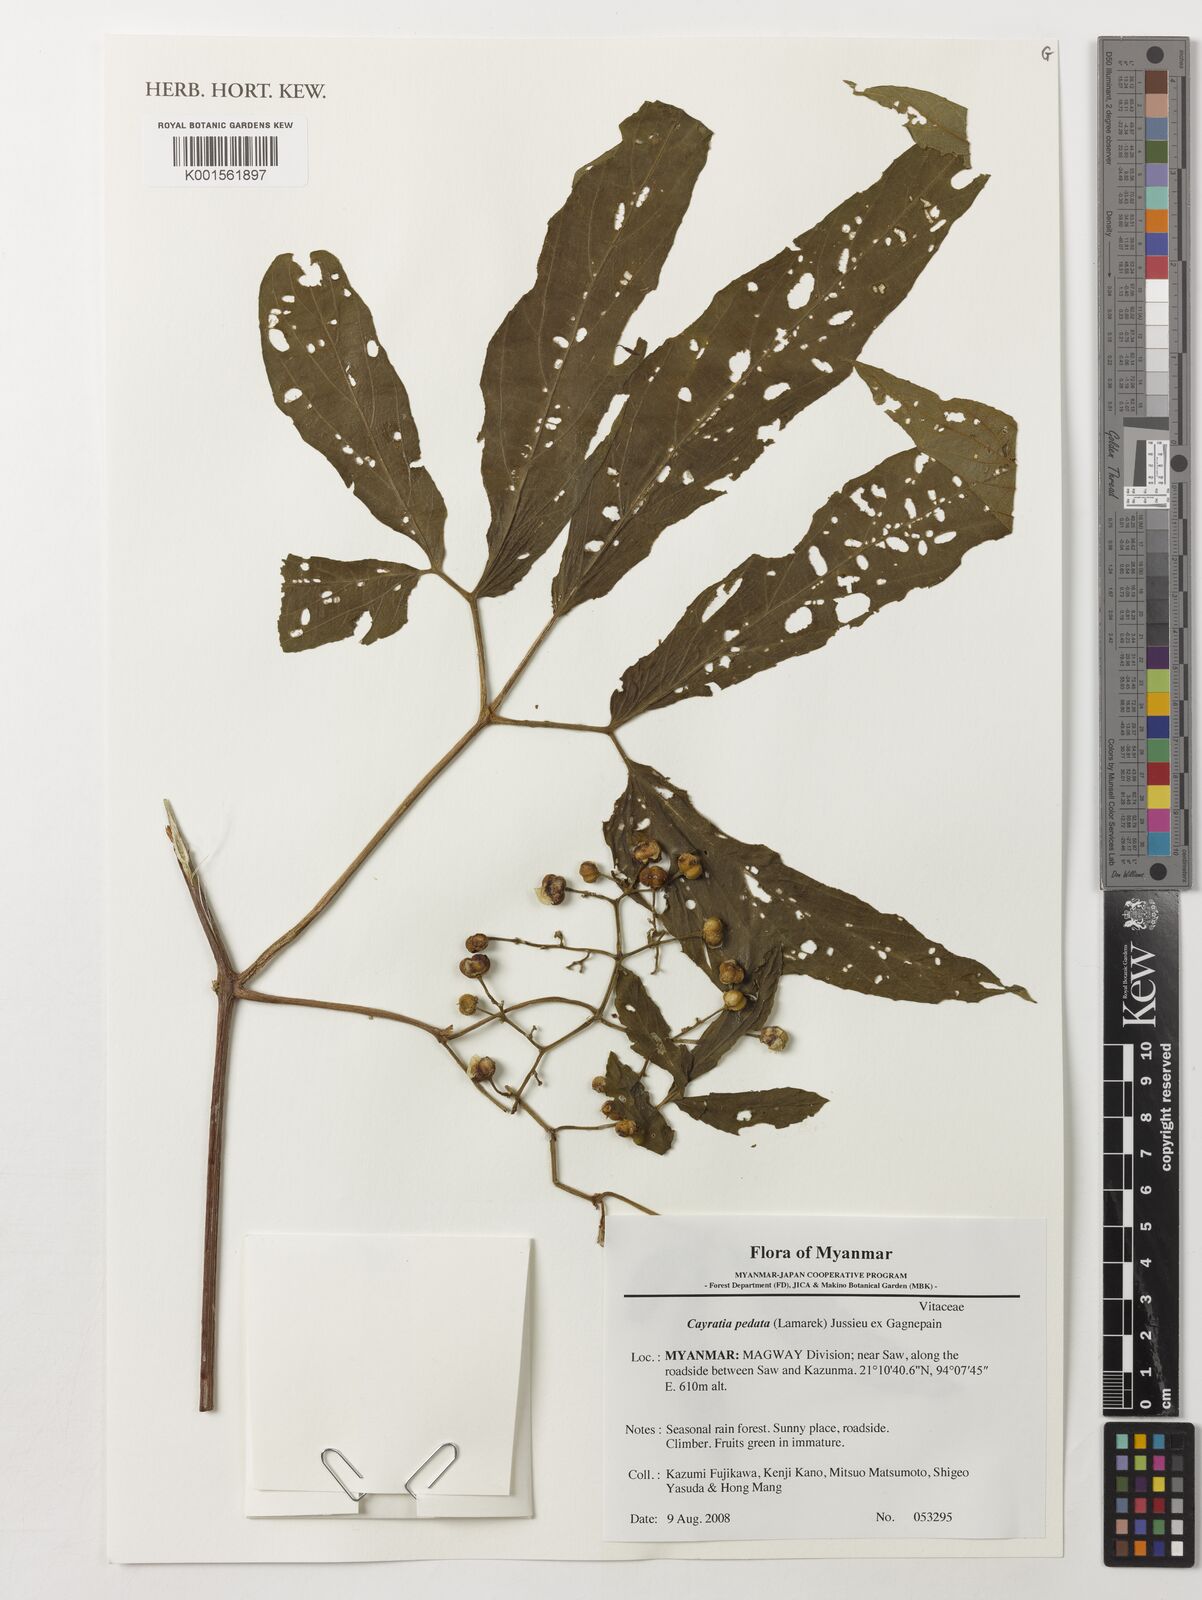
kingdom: Plantae
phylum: Tracheophyta
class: Magnoliopsida
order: Vitales
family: Vitaceae
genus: Cayratia
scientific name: Cayratia pedata
